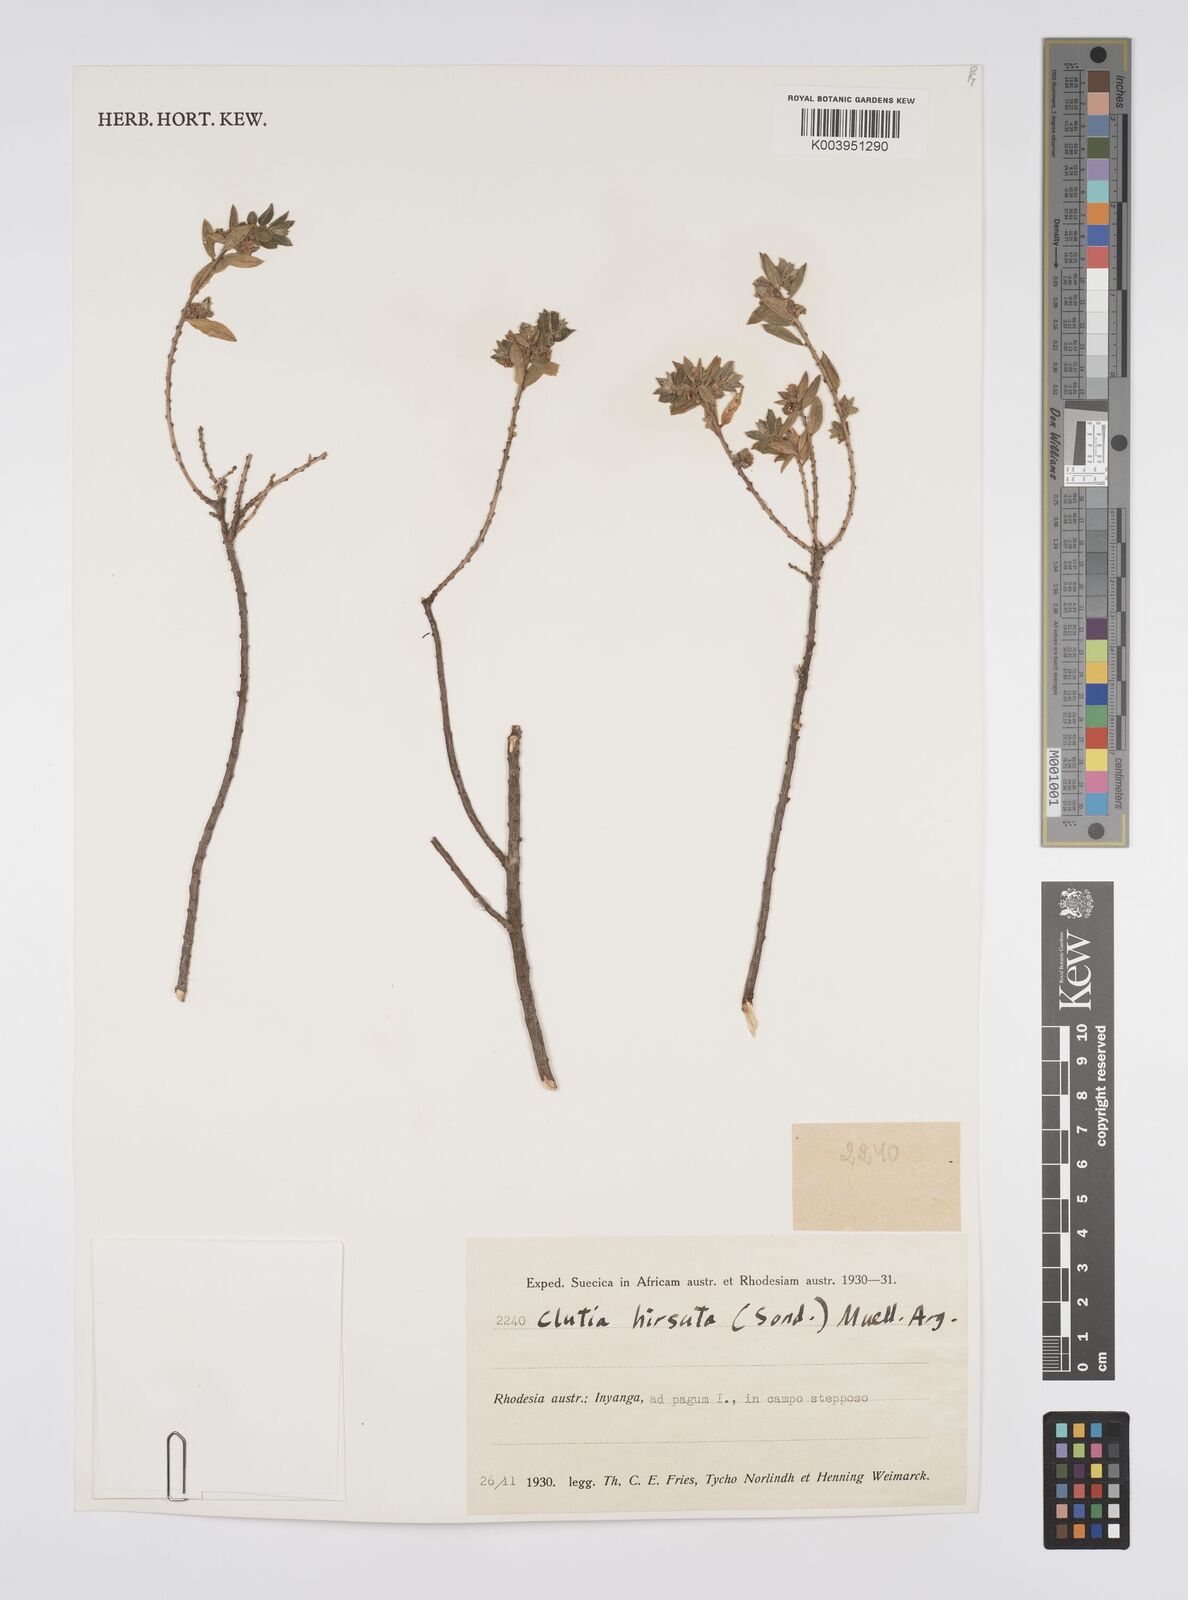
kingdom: Plantae
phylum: Tracheophyta
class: Magnoliopsida
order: Malpighiales
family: Peraceae
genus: Clutia
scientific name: Clutia hirsuta
